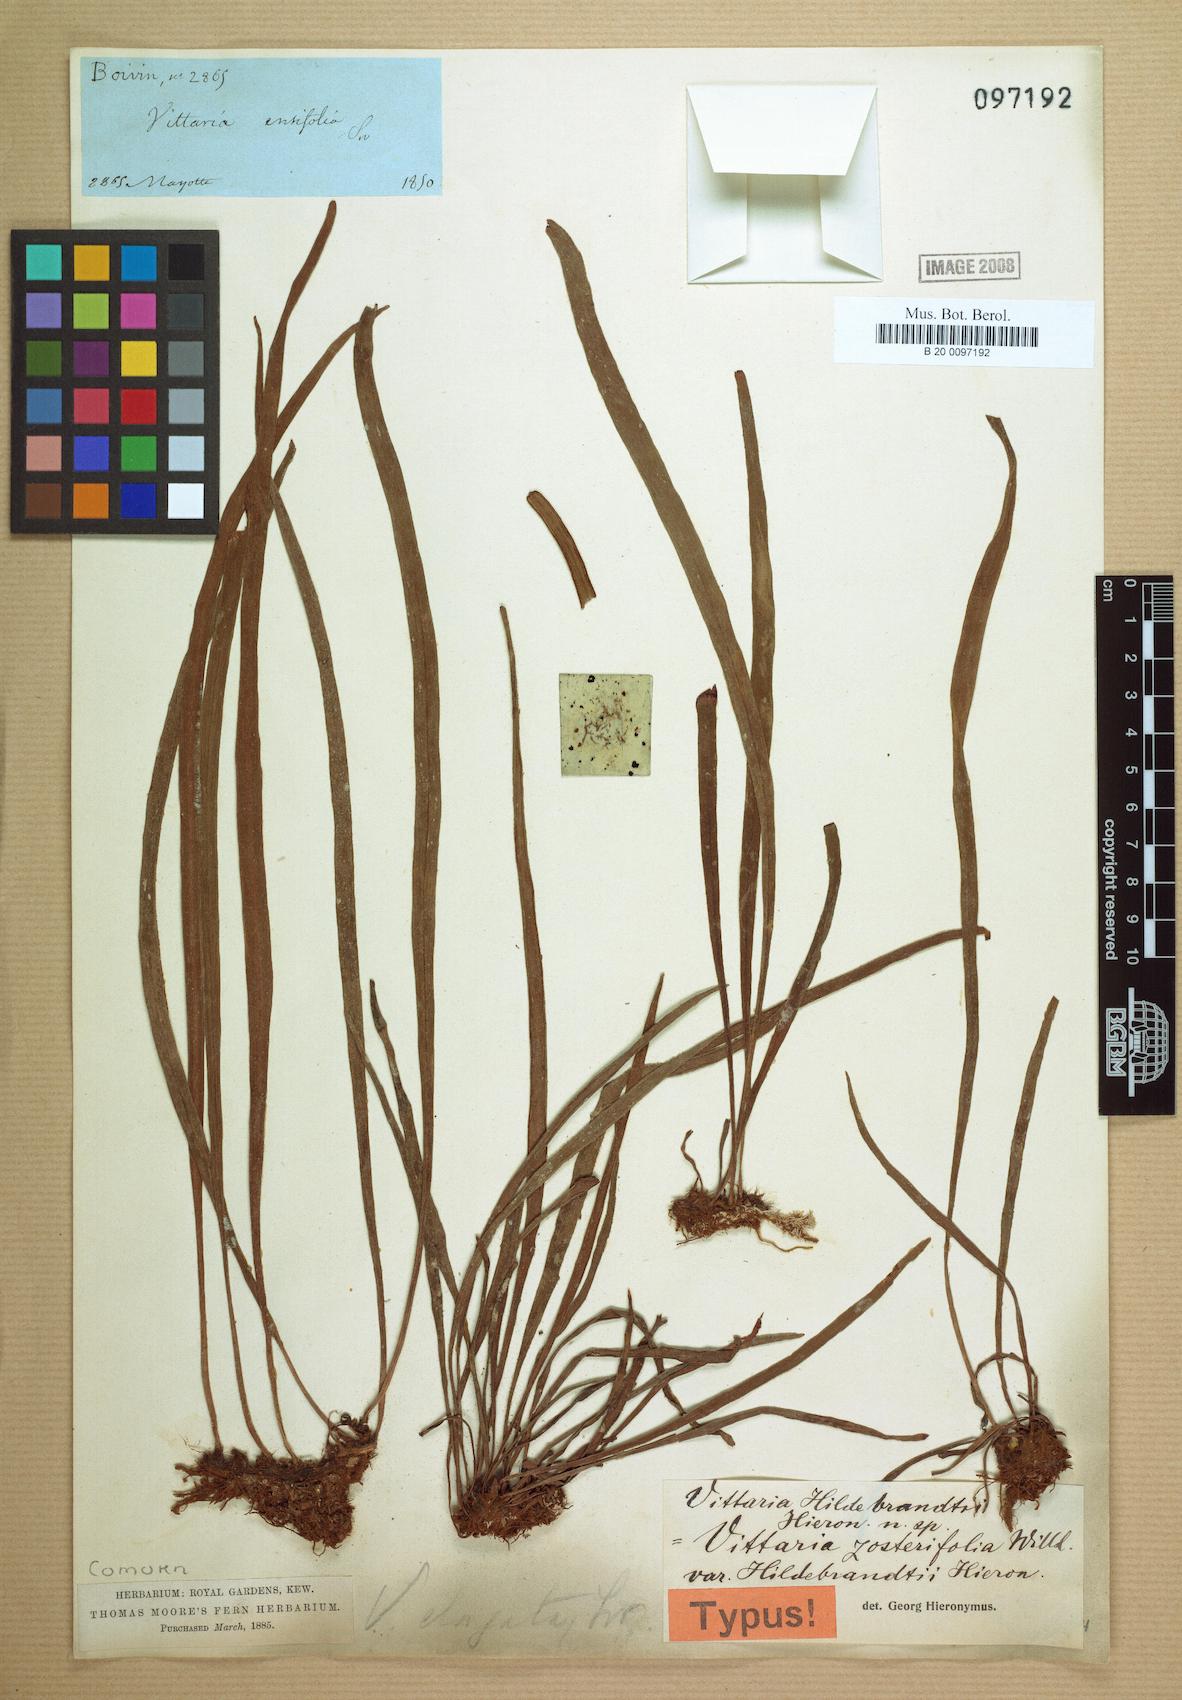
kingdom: Plantae
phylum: Tracheophyta
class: Polypodiopsida
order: Polypodiales
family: Pteridaceae
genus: Haplopteris
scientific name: Haplopteris elongata
